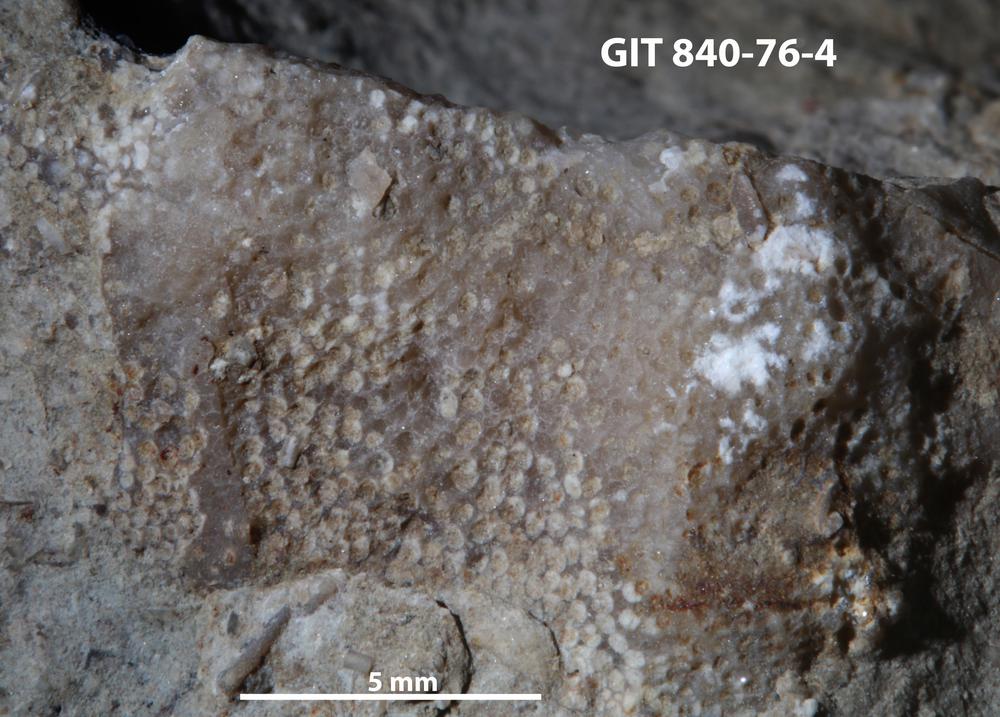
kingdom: Animalia
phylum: Bryozoa
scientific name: Bryozoa
